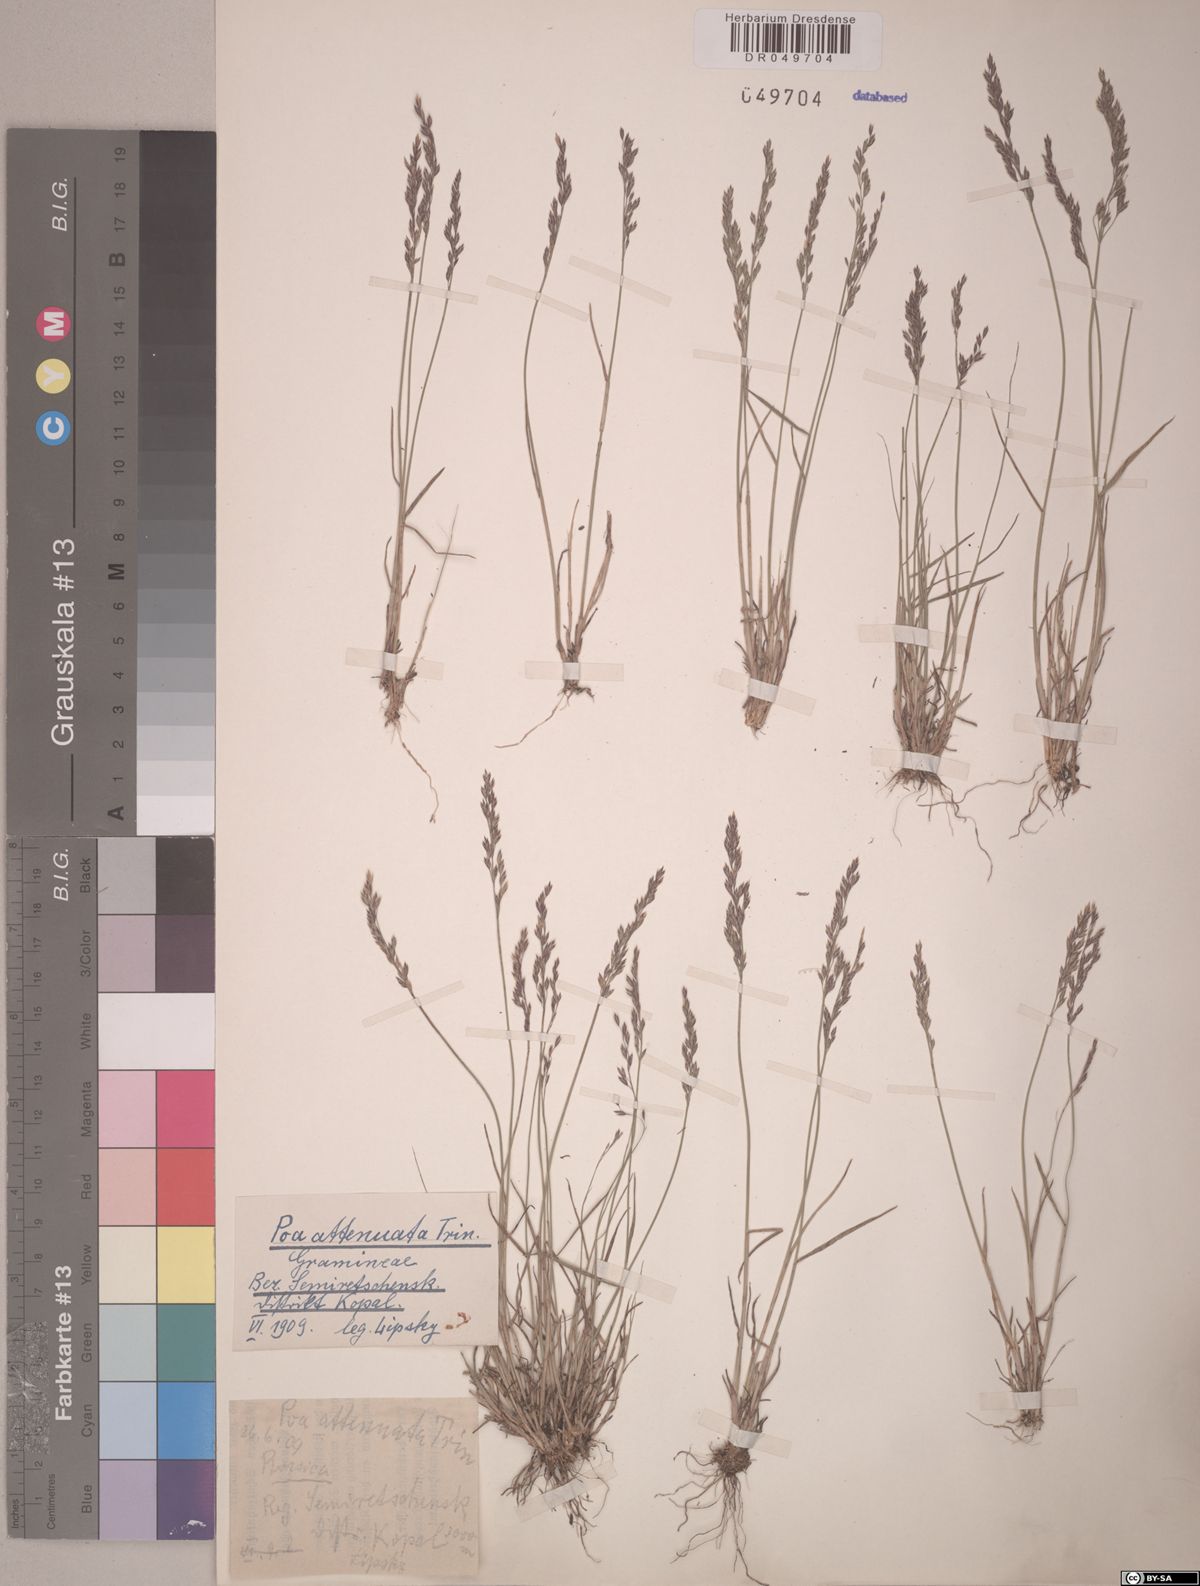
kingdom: Plantae
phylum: Tracheophyta
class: Liliopsida
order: Poales
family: Poaceae
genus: Poa
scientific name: Poa attenuata
